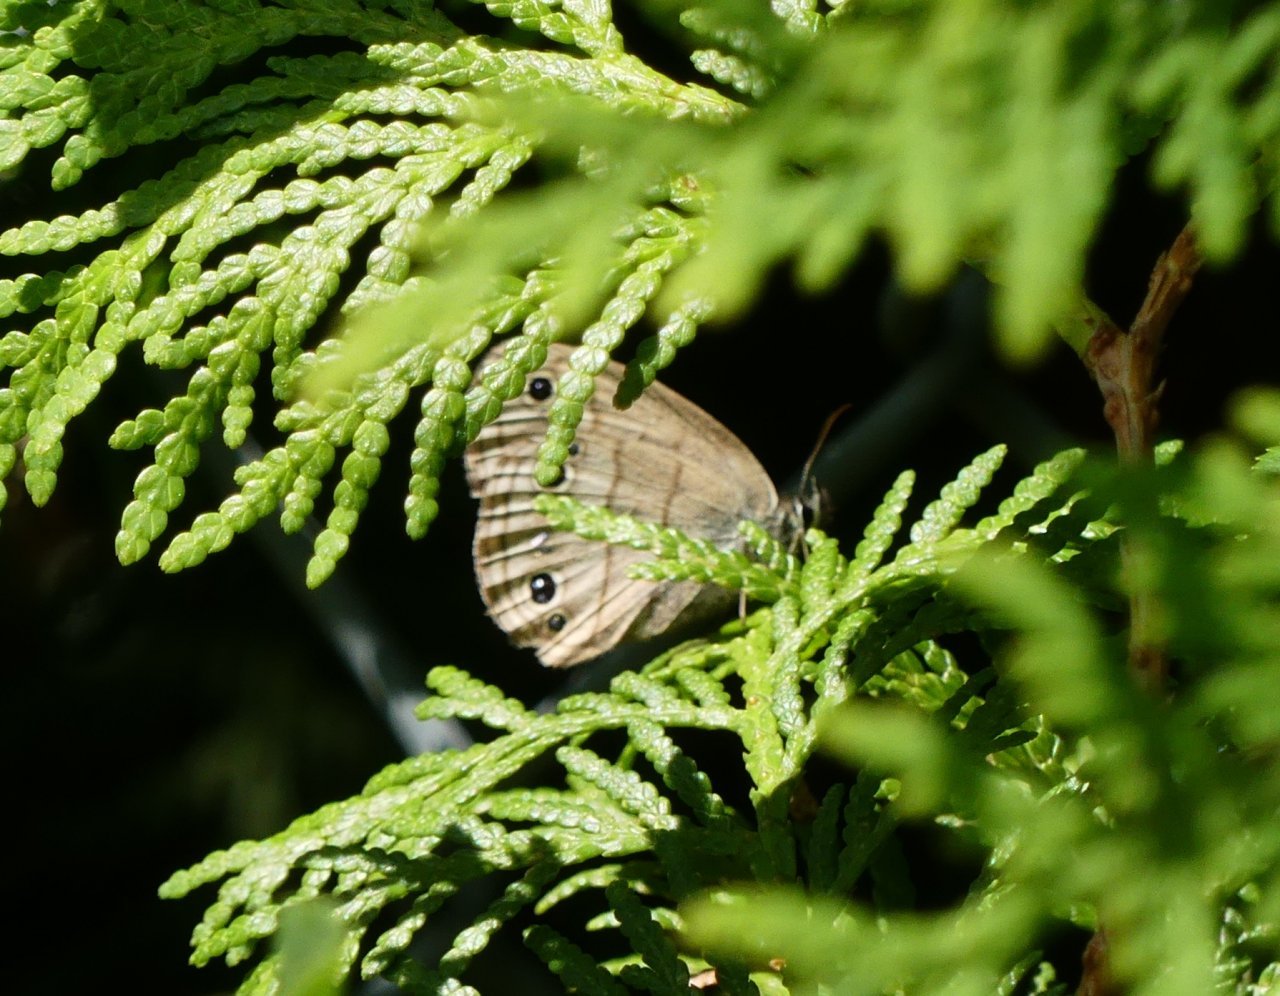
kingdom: Animalia
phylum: Arthropoda
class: Insecta
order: Lepidoptera
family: Nymphalidae
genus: Euptychia
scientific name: Euptychia cymela
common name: Little Wood Satyr
